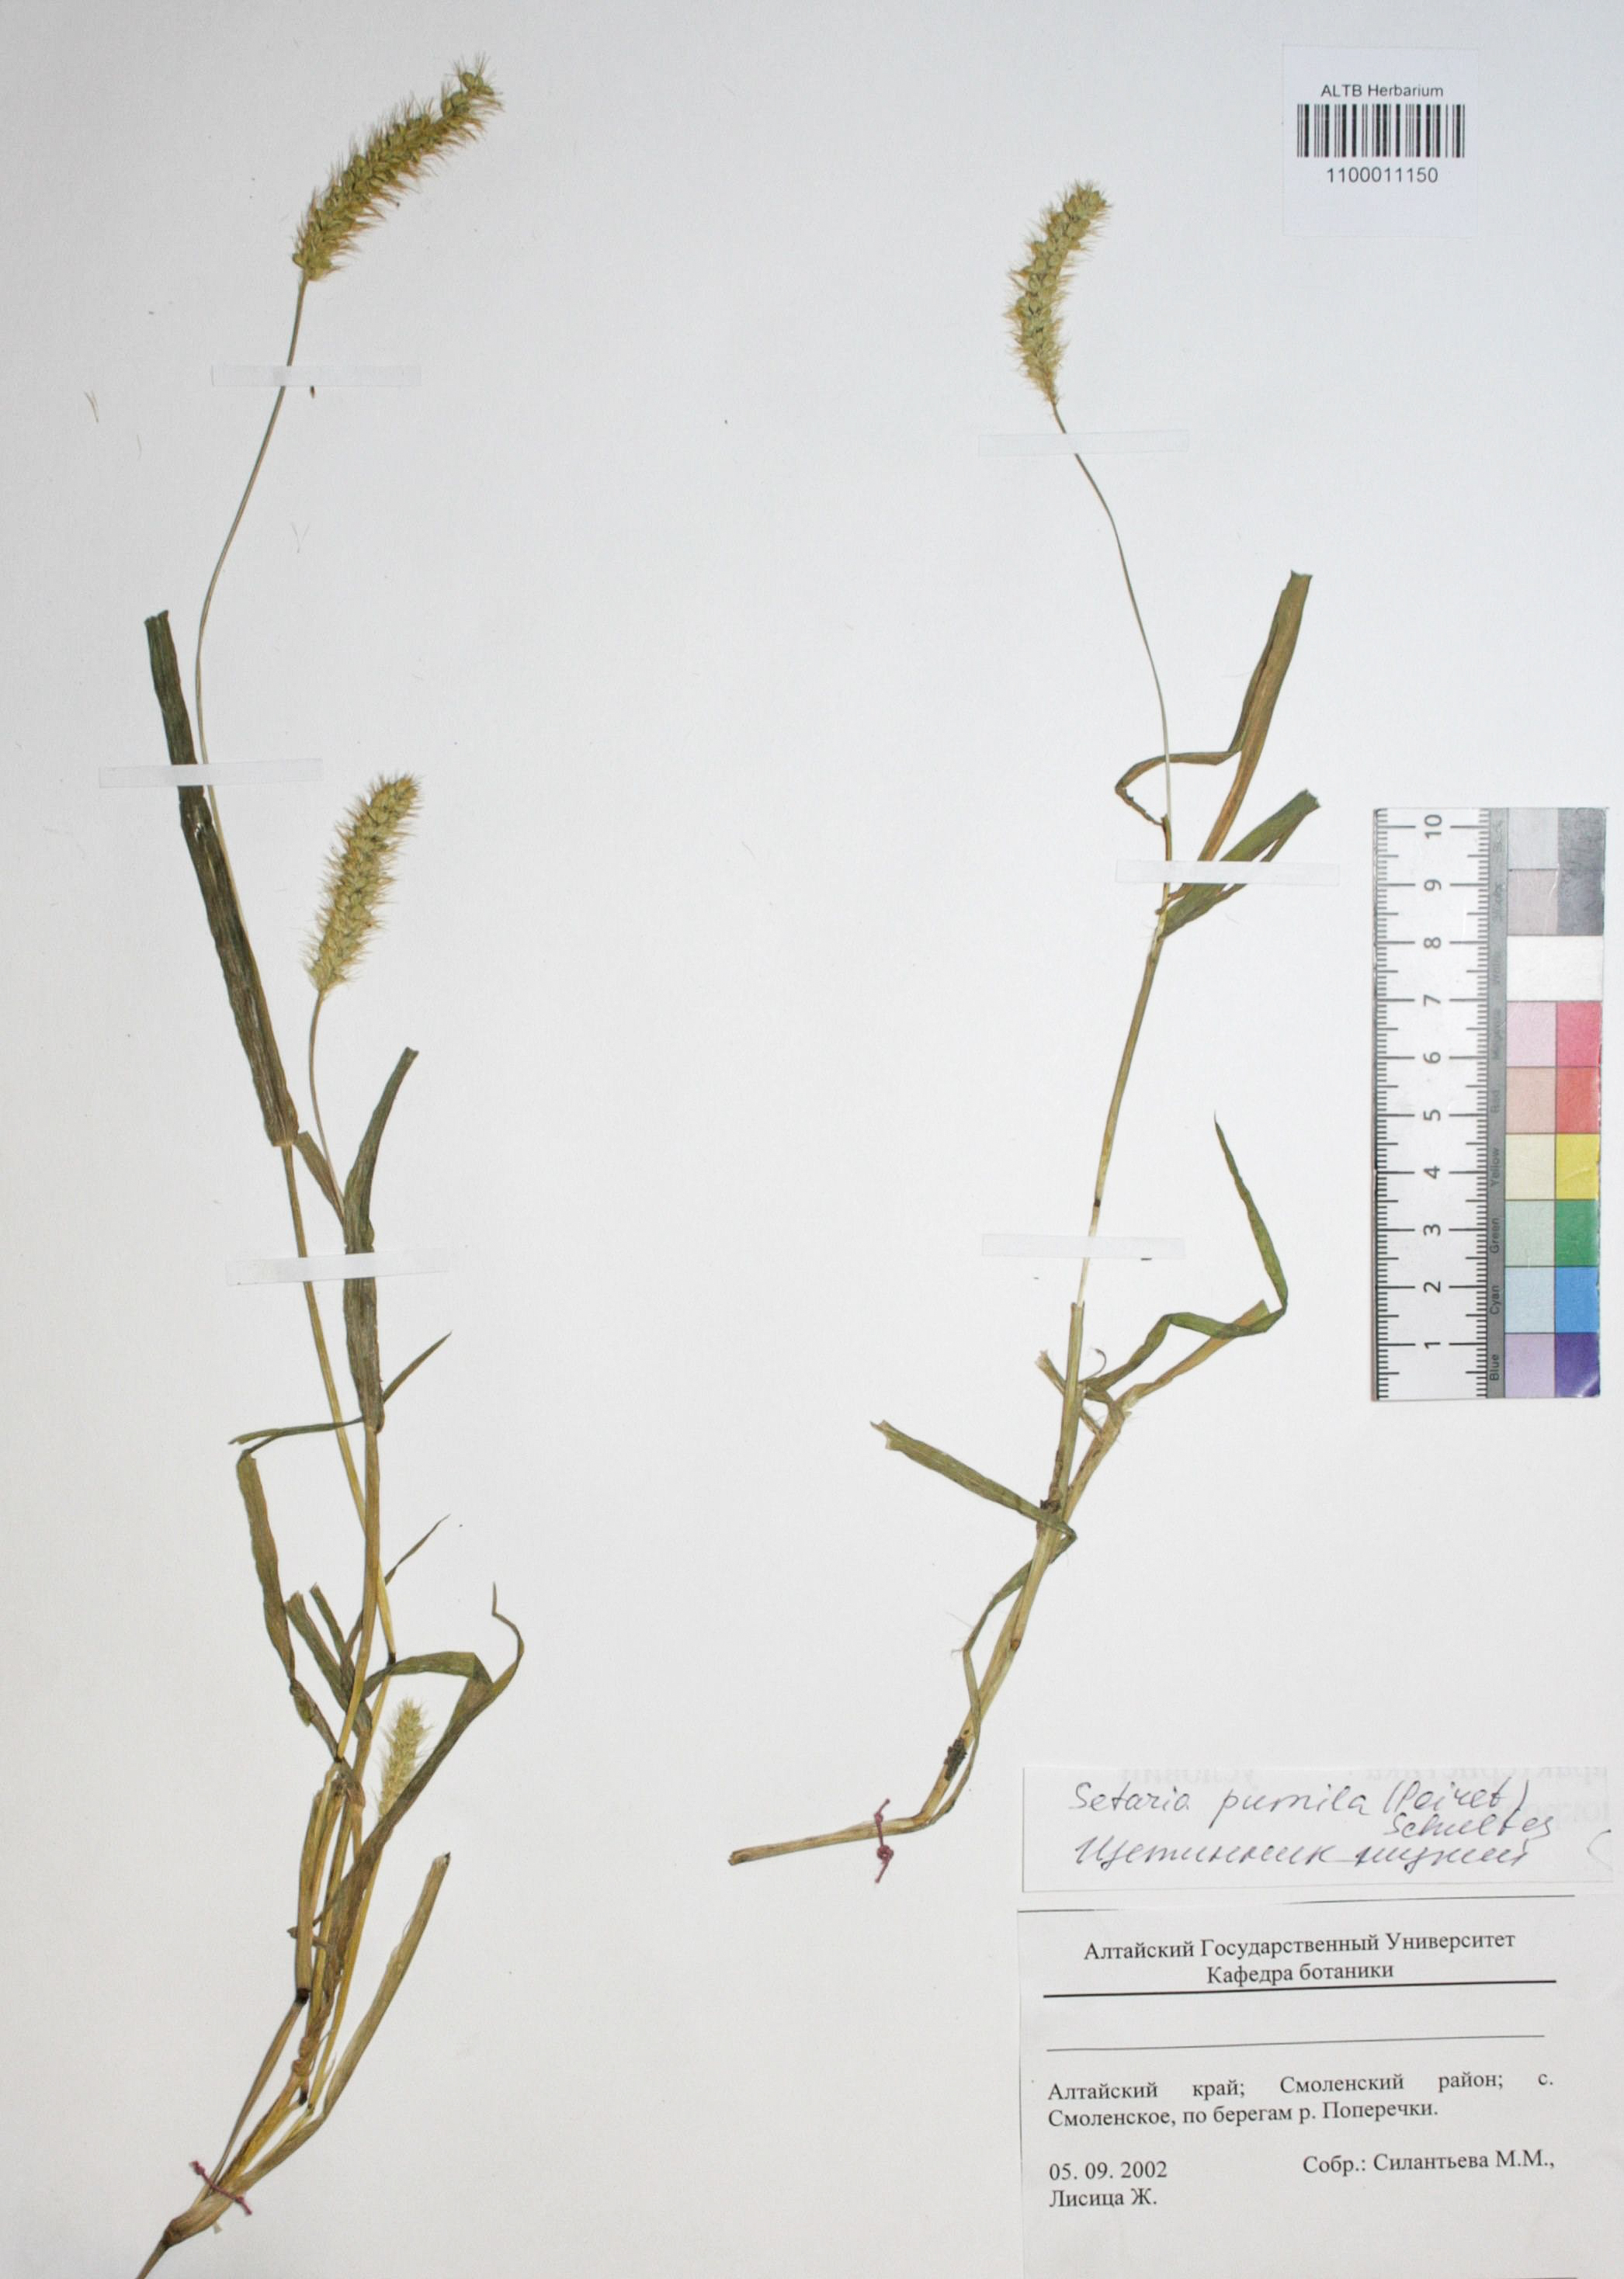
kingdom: Plantae
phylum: Tracheophyta
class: Liliopsida
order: Poales
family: Poaceae
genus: Setaria
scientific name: Setaria pumila
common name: Yellow bristle-grass
